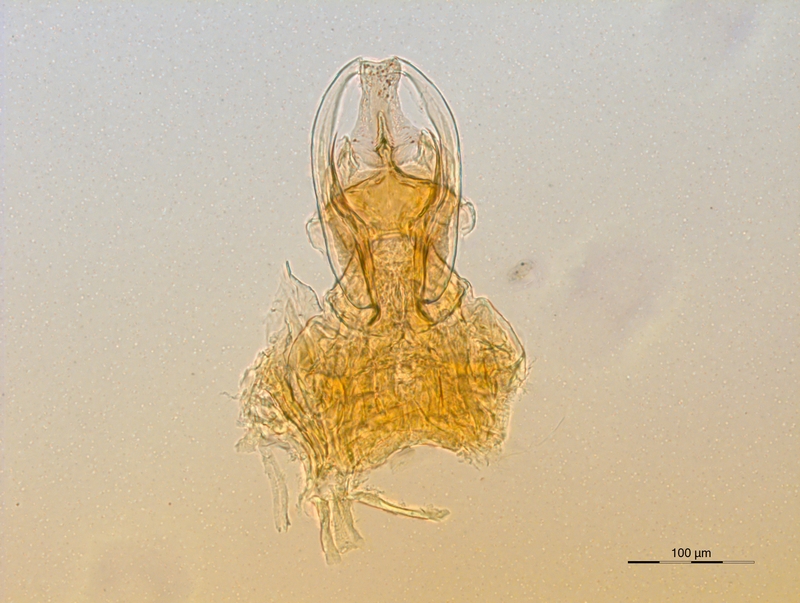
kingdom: Animalia
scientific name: Animalia
